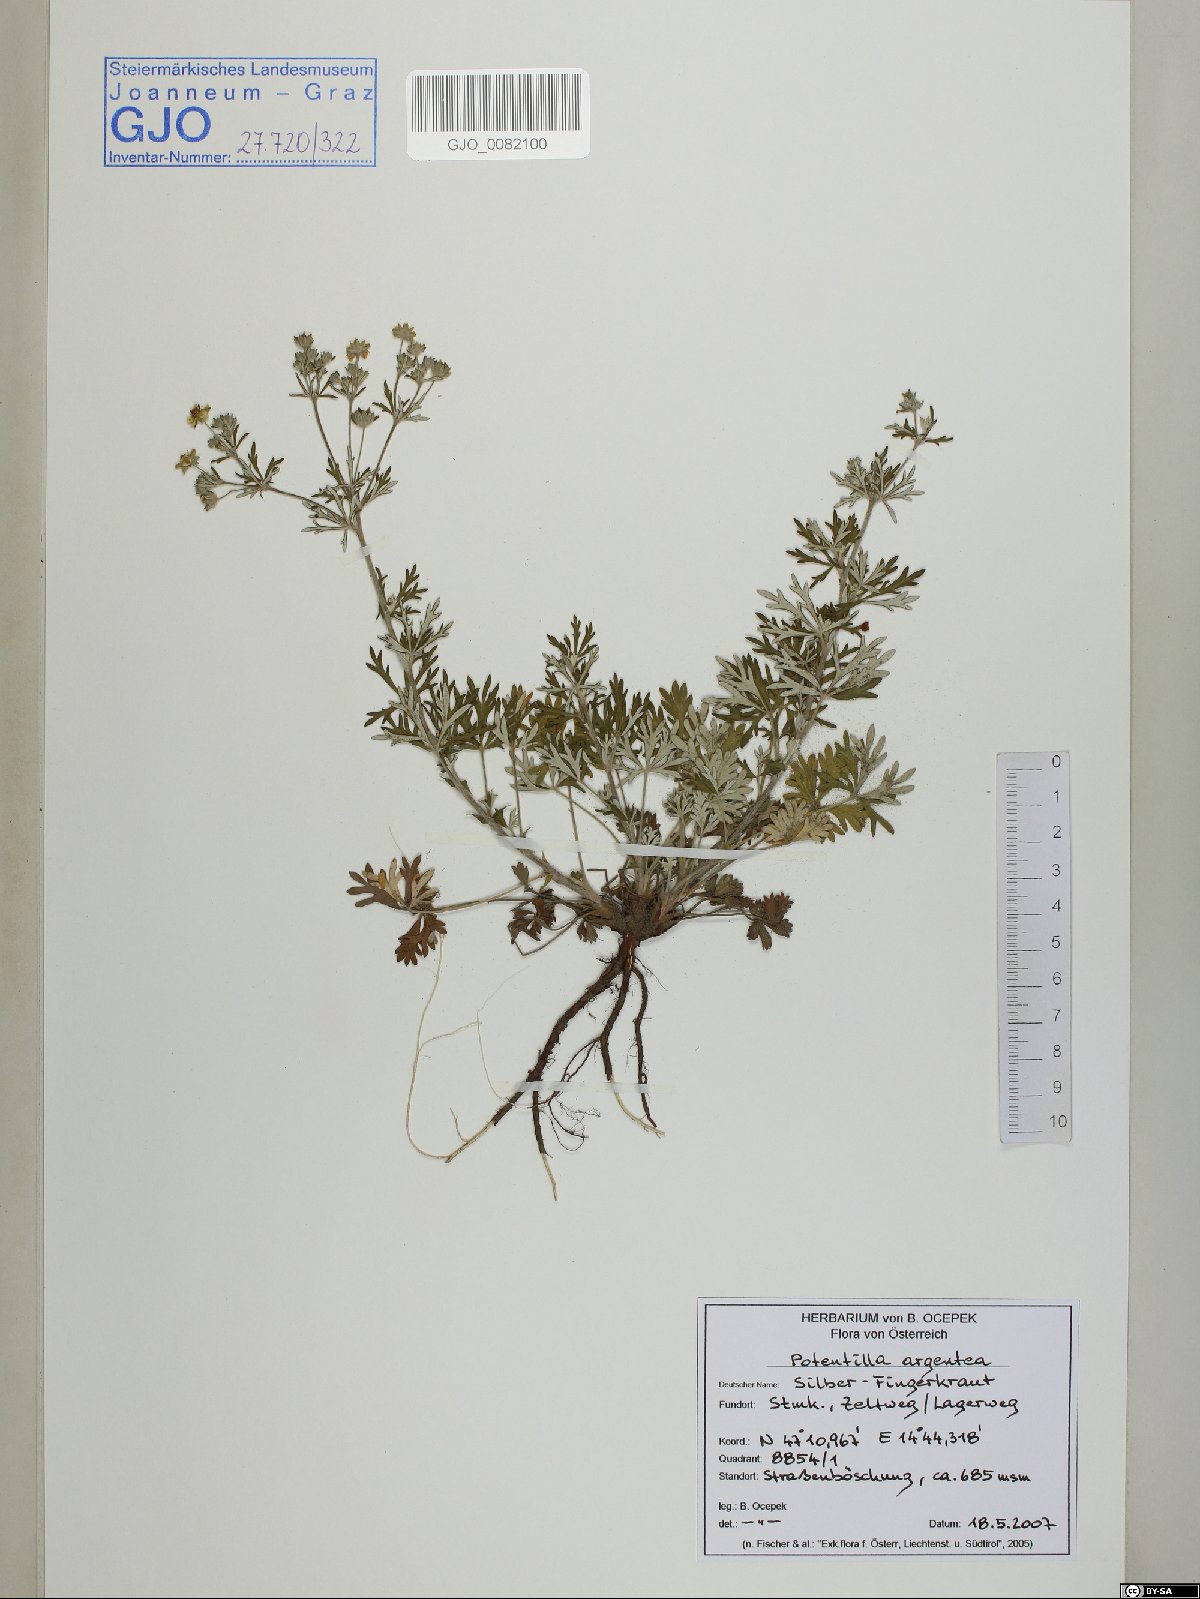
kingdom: Plantae
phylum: Tracheophyta
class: Magnoliopsida
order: Rosales
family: Rosaceae
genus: Potentilla
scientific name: Potentilla argentea
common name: Hoary cinquefoil
